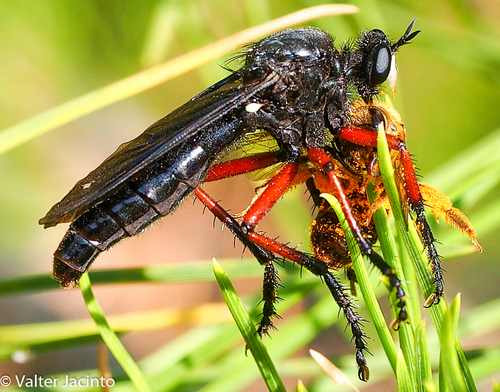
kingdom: Animalia
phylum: Arthropoda
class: Insecta
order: Diptera
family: Asilidae
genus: Dasypogon
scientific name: Dasypogon
